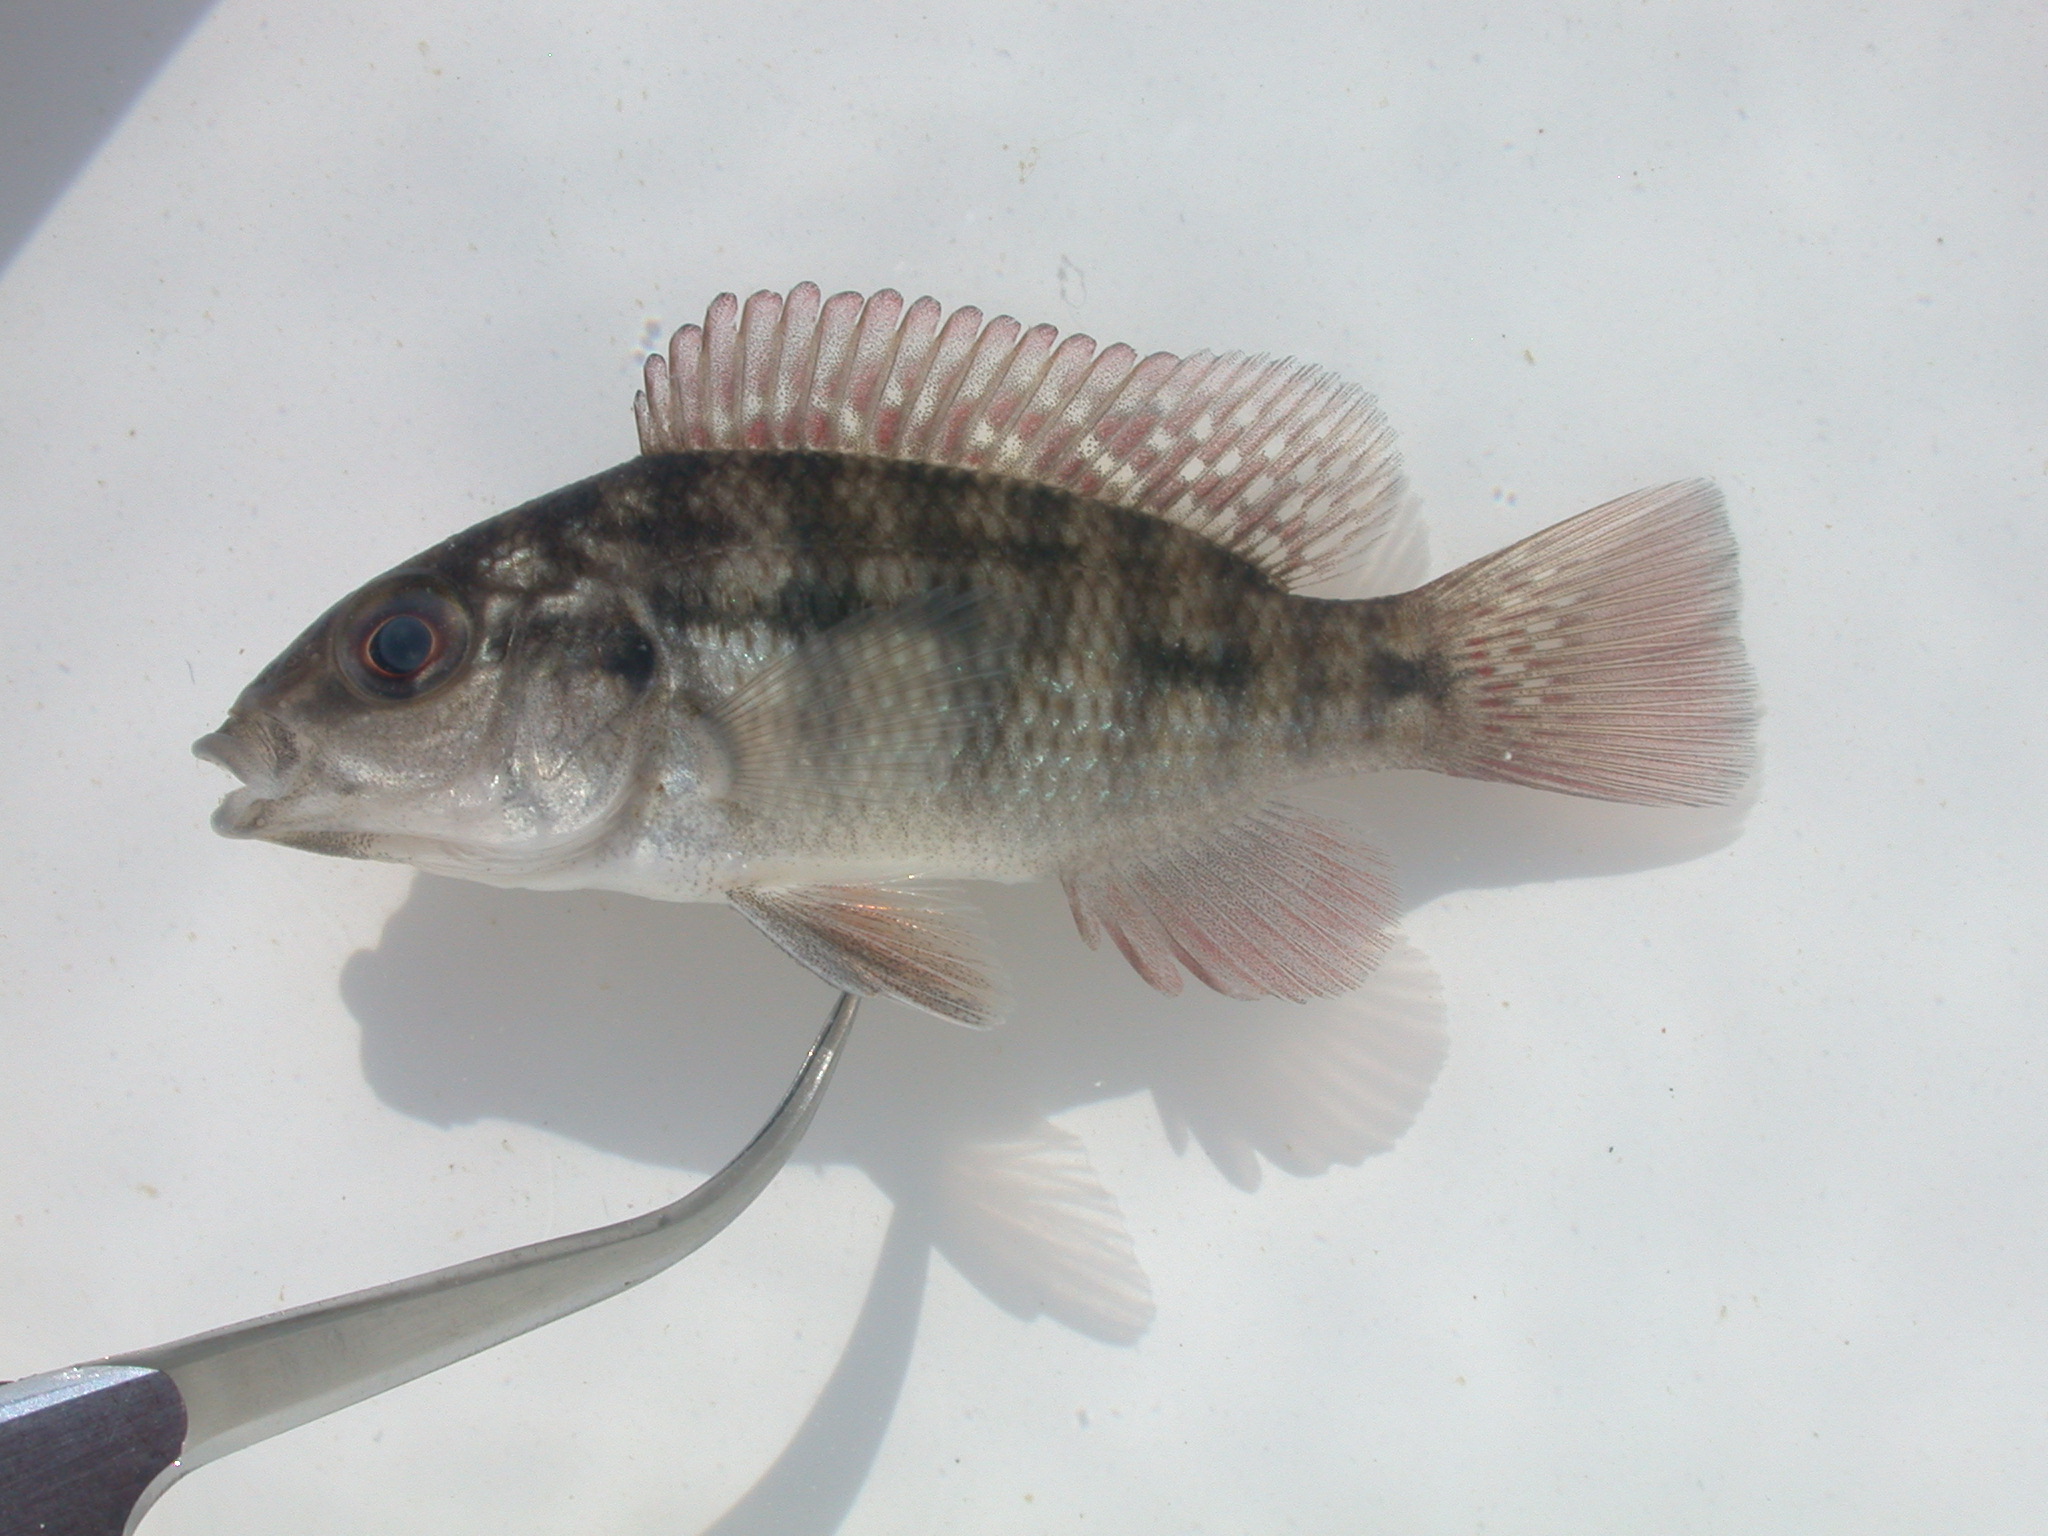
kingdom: Animalia
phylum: Chordata
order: Perciformes
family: Cichlidae
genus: Sargochromis
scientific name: Sargochromis
